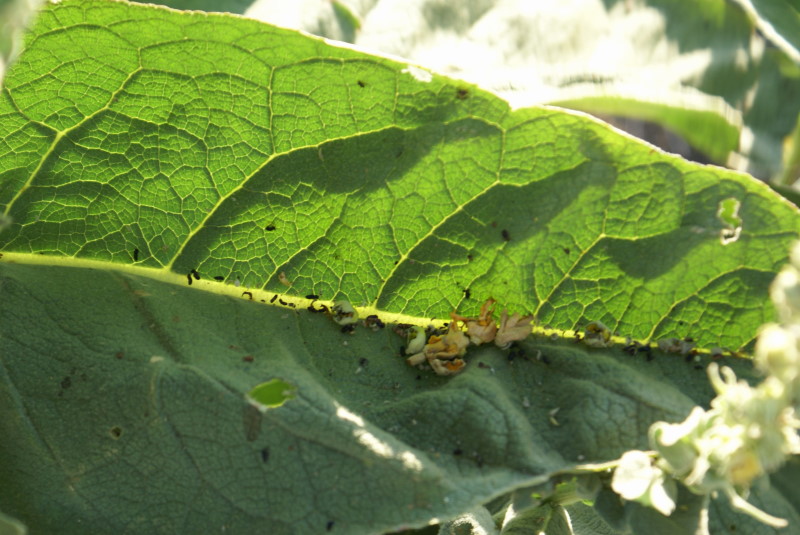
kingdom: Plantae
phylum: Tracheophyta
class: Magnoliopsida
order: Lamiales
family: Scrophulariaceae
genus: Verbascum
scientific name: Verbascum
